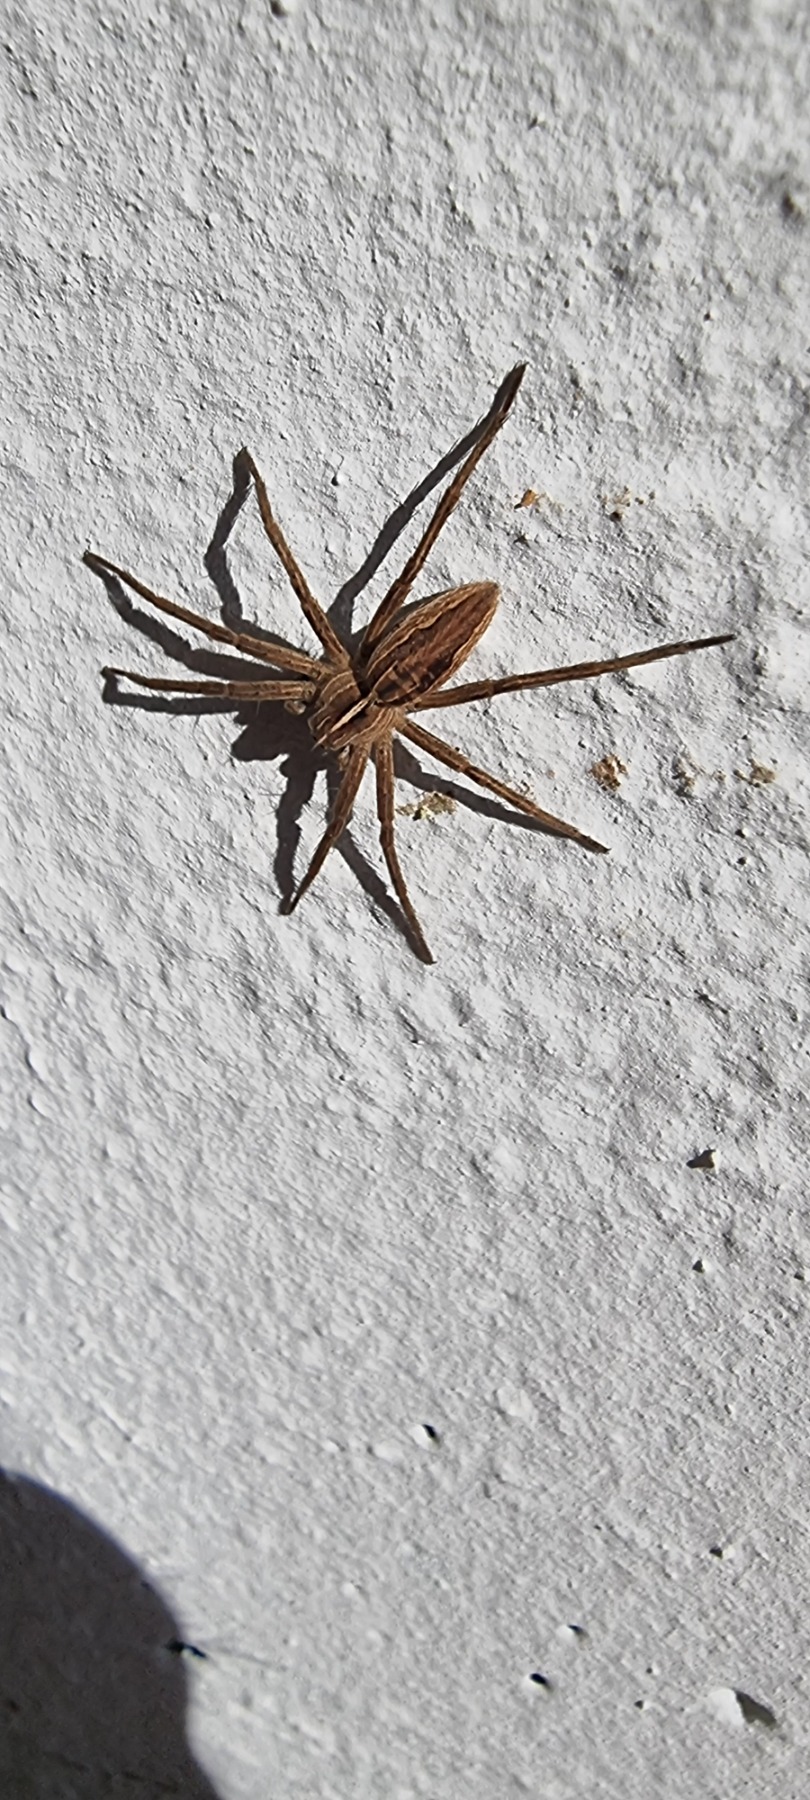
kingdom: Animalia
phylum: Arthropoda
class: Arachnida
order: Araneae
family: Pisauridae
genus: Pisaura
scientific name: Pisaura mirabilis
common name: Almindelig rovedderkop
